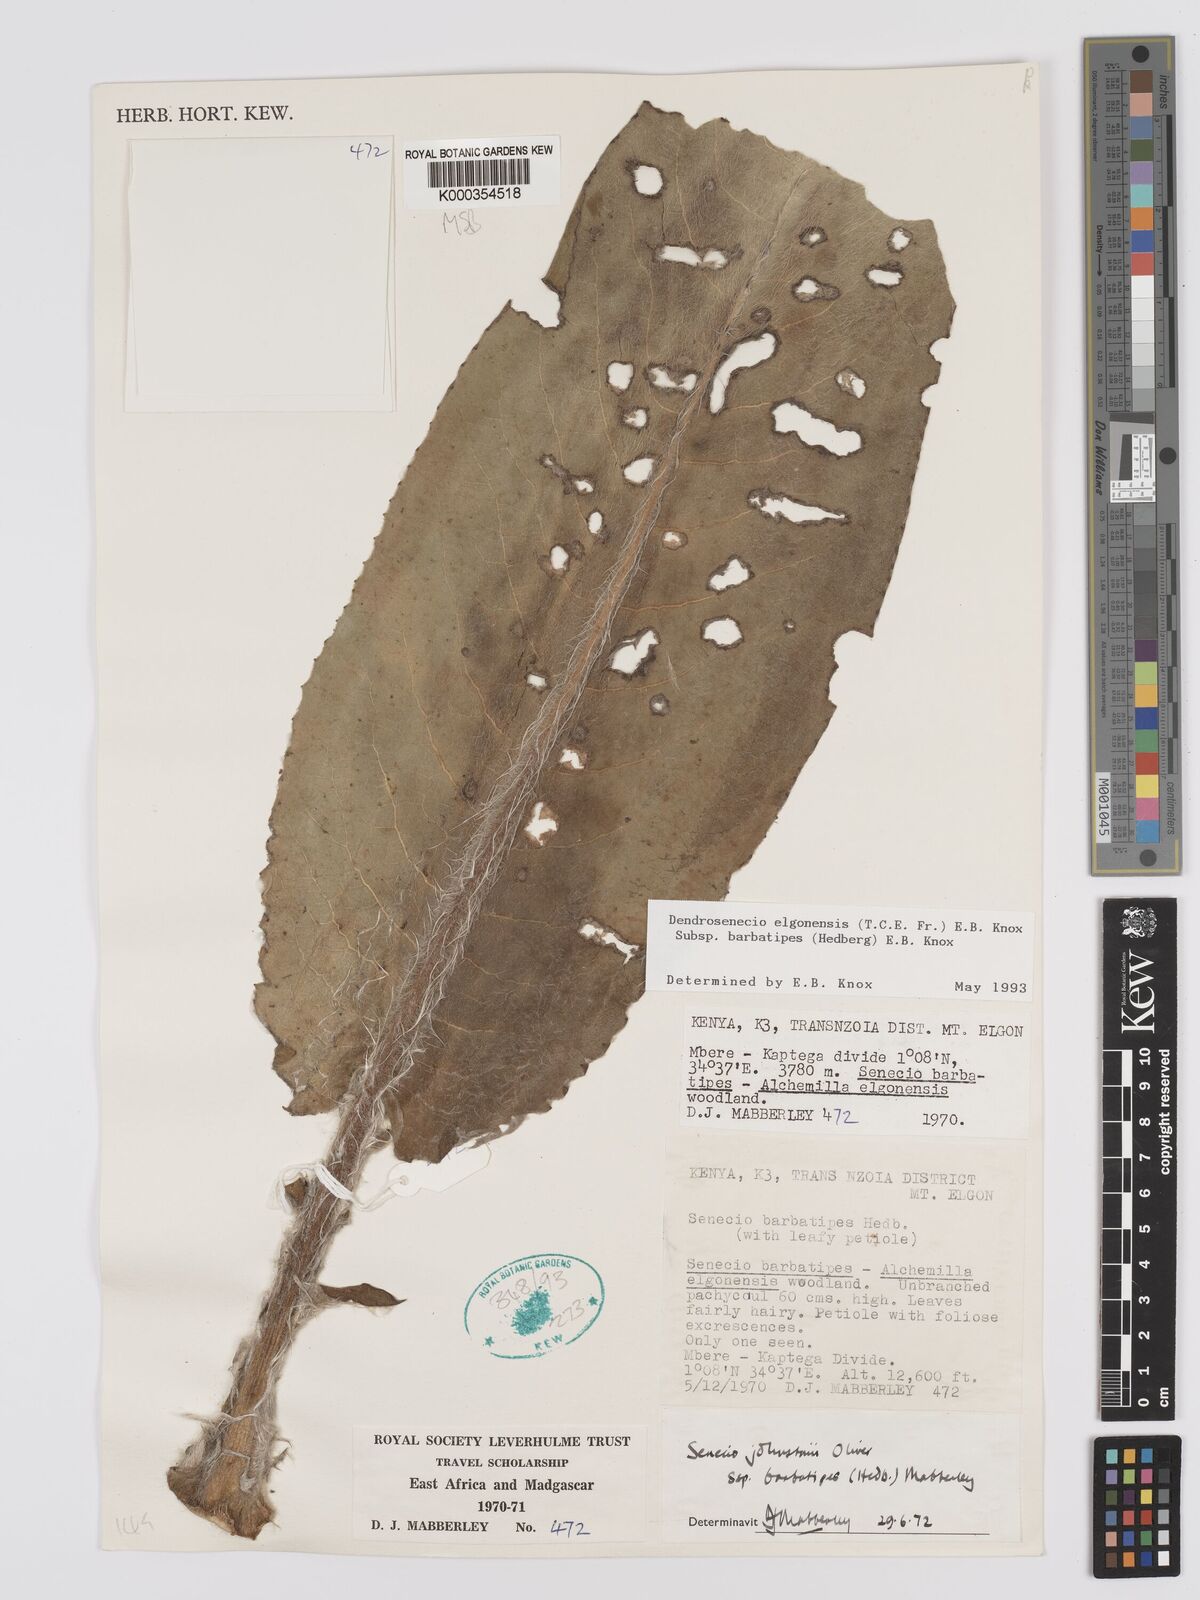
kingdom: Plantae
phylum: Tracheophyta
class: Magnoliopsida
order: Asterales
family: Asteraceae
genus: Dendrosenecio
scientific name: Dendrosenecio elgonensis
